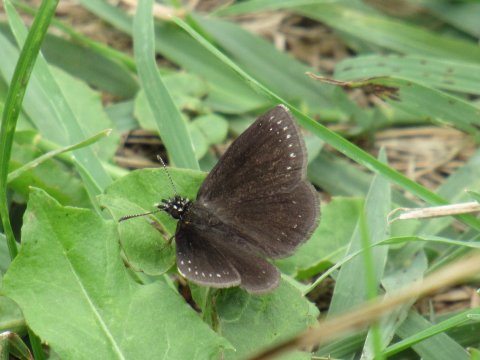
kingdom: Animalia
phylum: Arthropoda
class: Insecta
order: Lepidoptera
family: Hesperiidae
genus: Pholisora
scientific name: Pholisora catullus
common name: Common Sootywing
